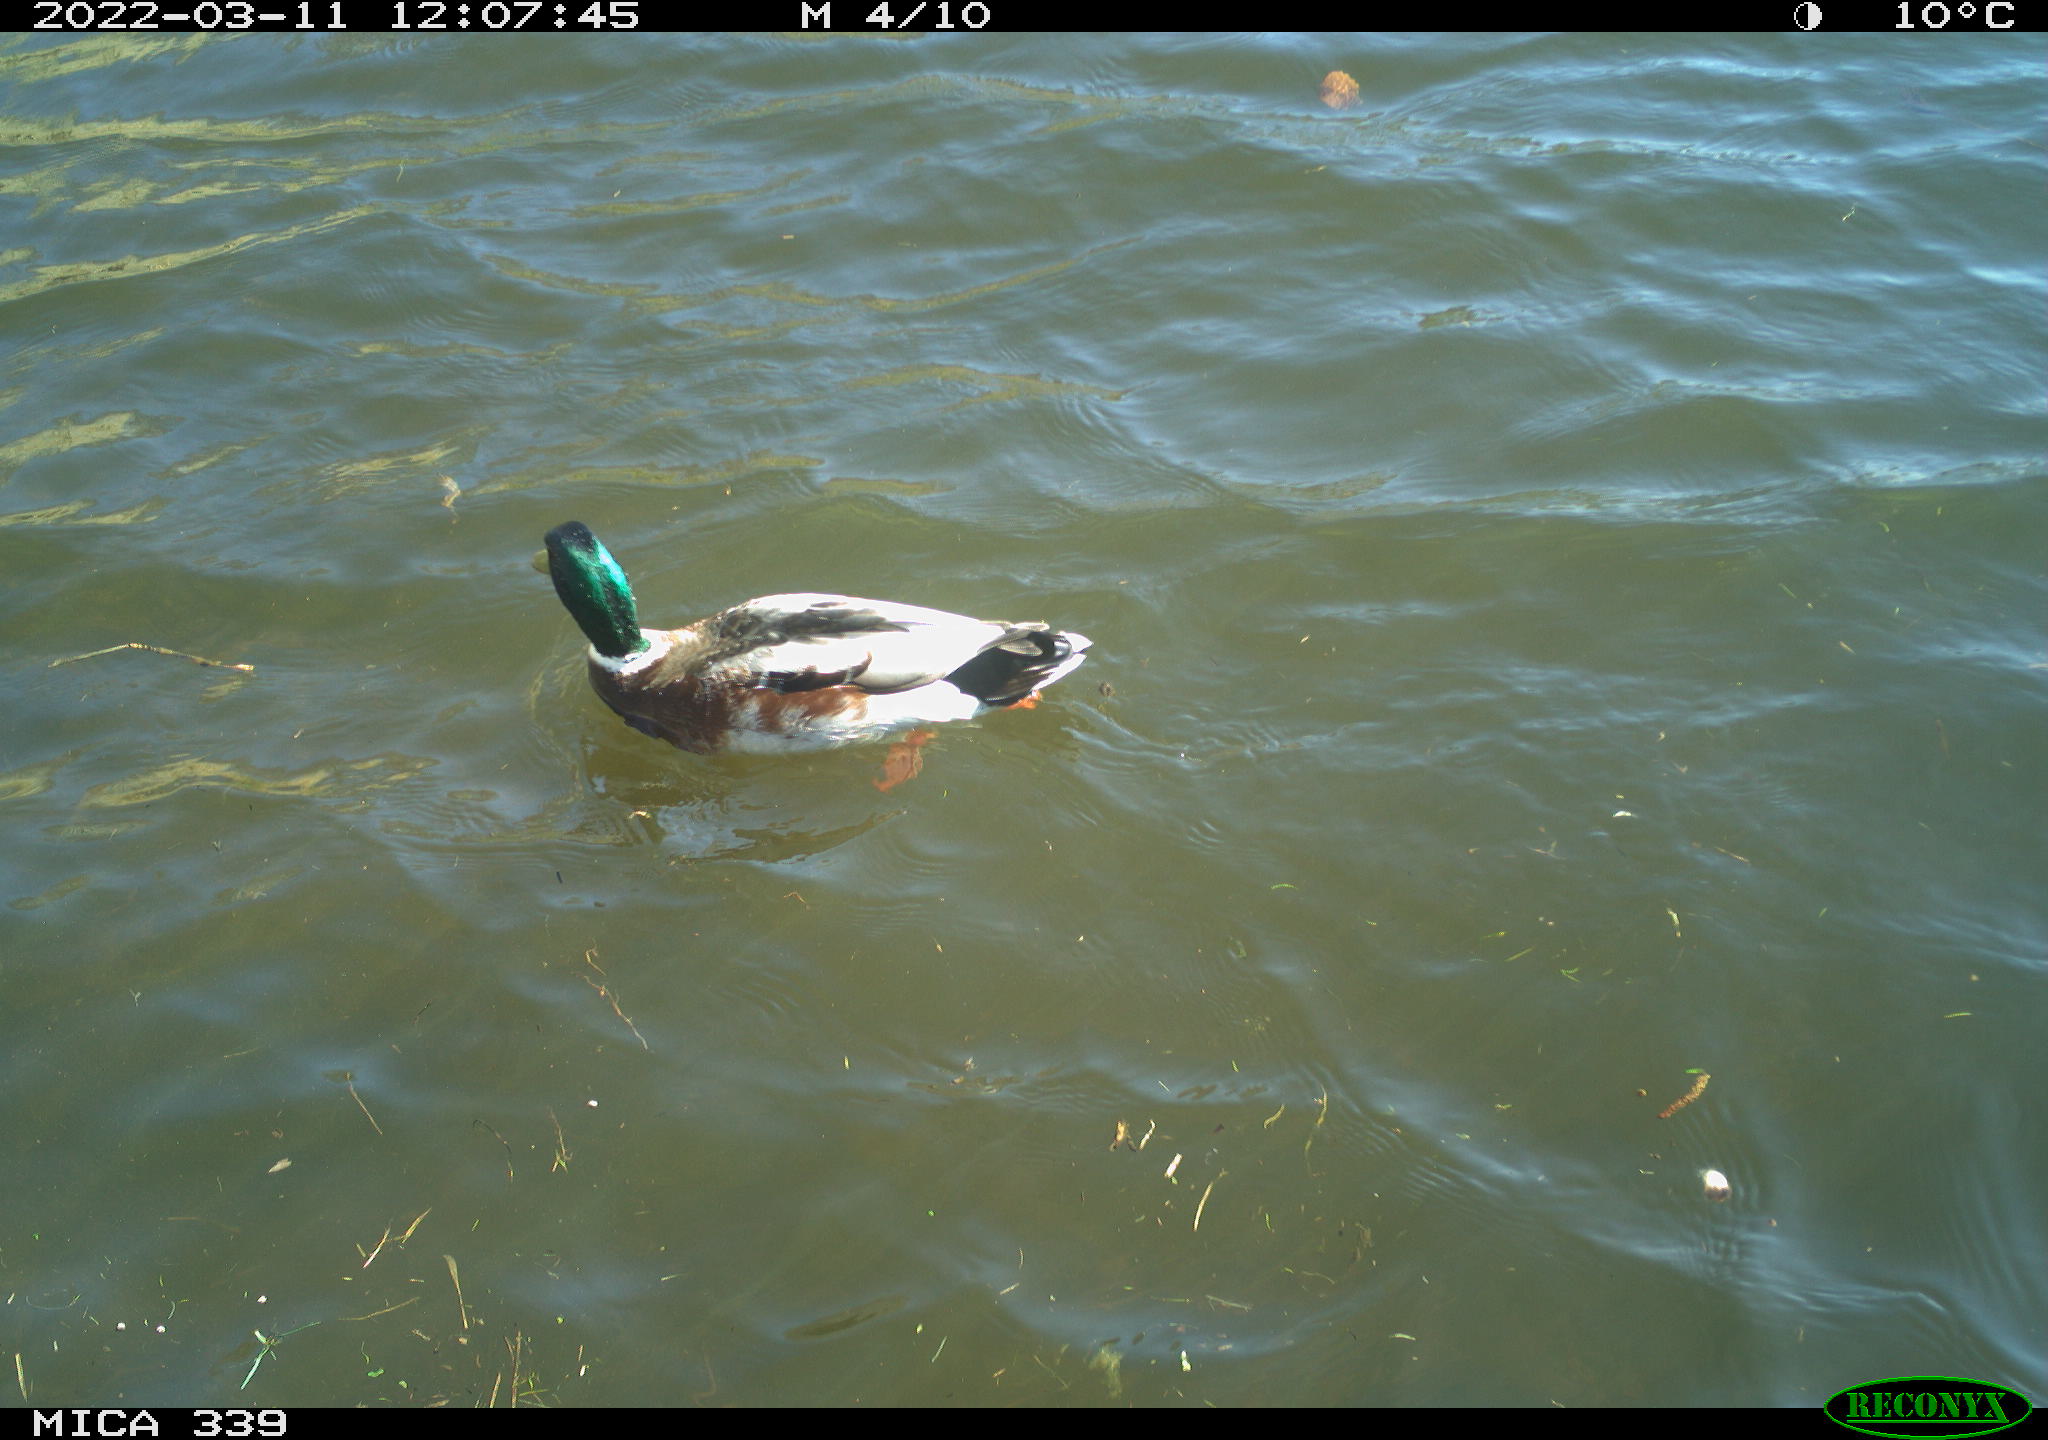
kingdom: Animalia
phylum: Chordata
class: Aves
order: Anseriformes
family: Anatidae
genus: Anas
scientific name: Anas platyrhynchos
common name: Mallard
